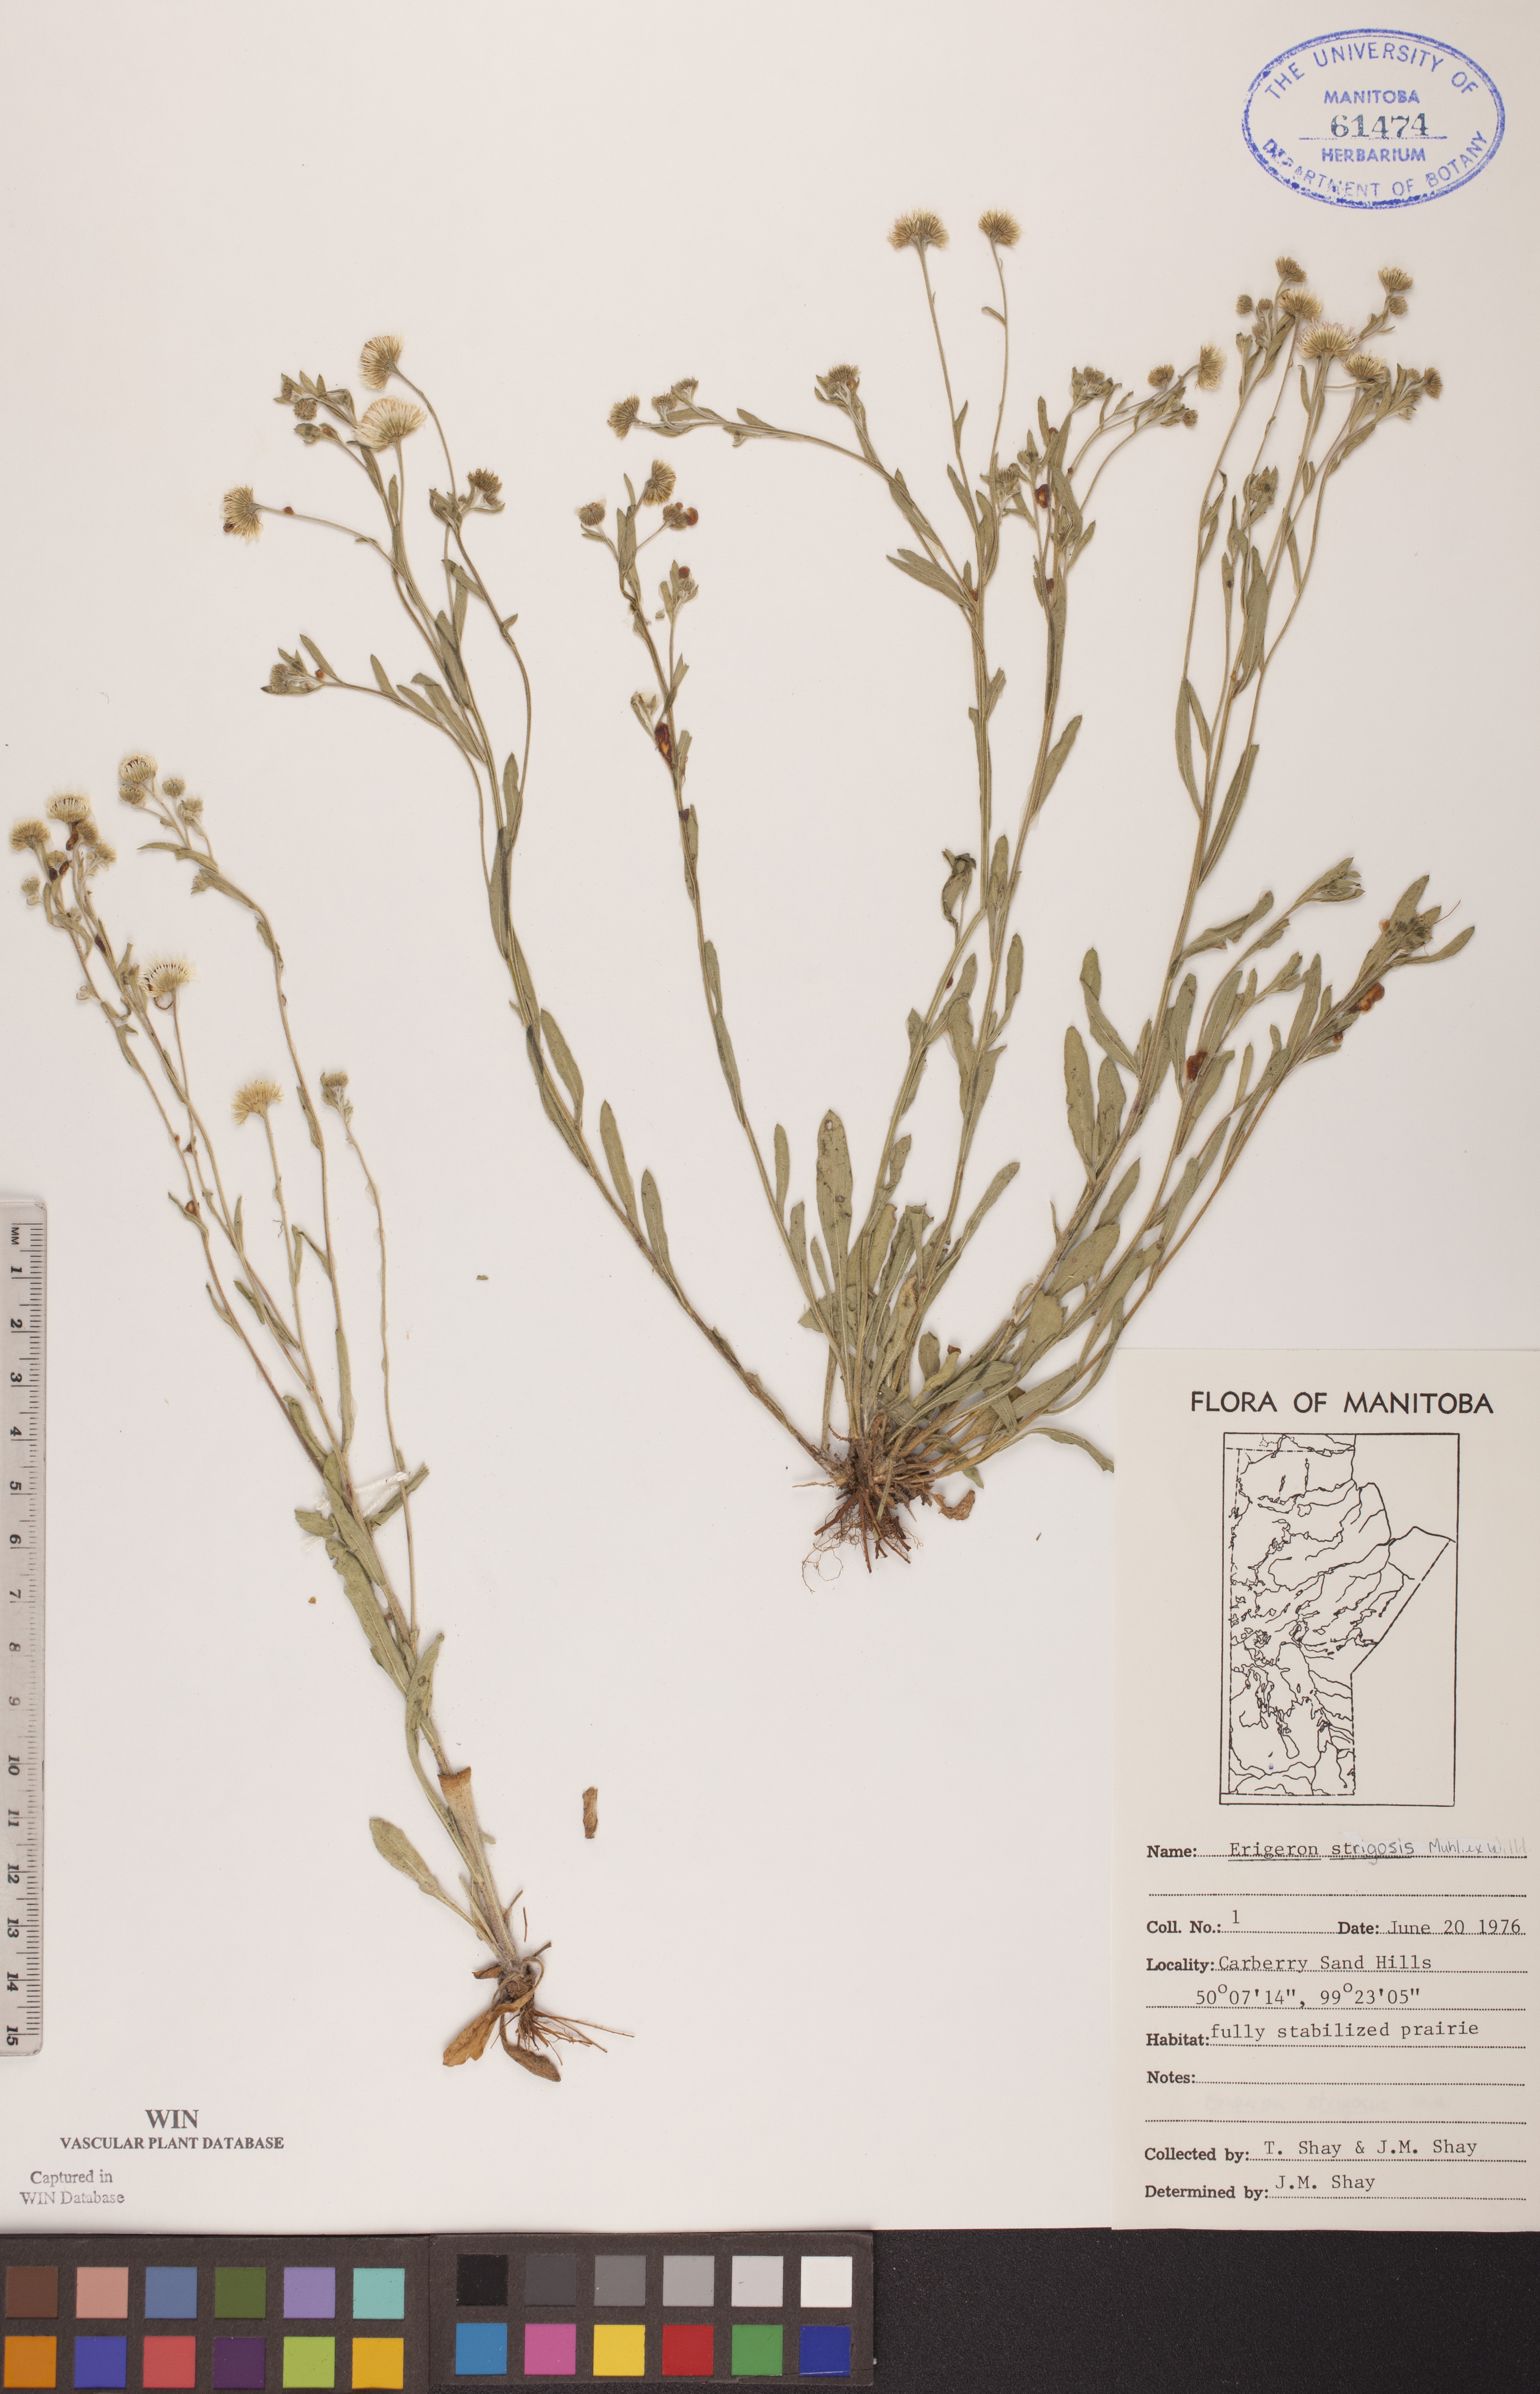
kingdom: Plantae
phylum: Tracheophyta
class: Magnoliopsida
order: Asterales
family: Asteraceae
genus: Erigeron
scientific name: Erigeron strigosus
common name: Common eastern fleabane
